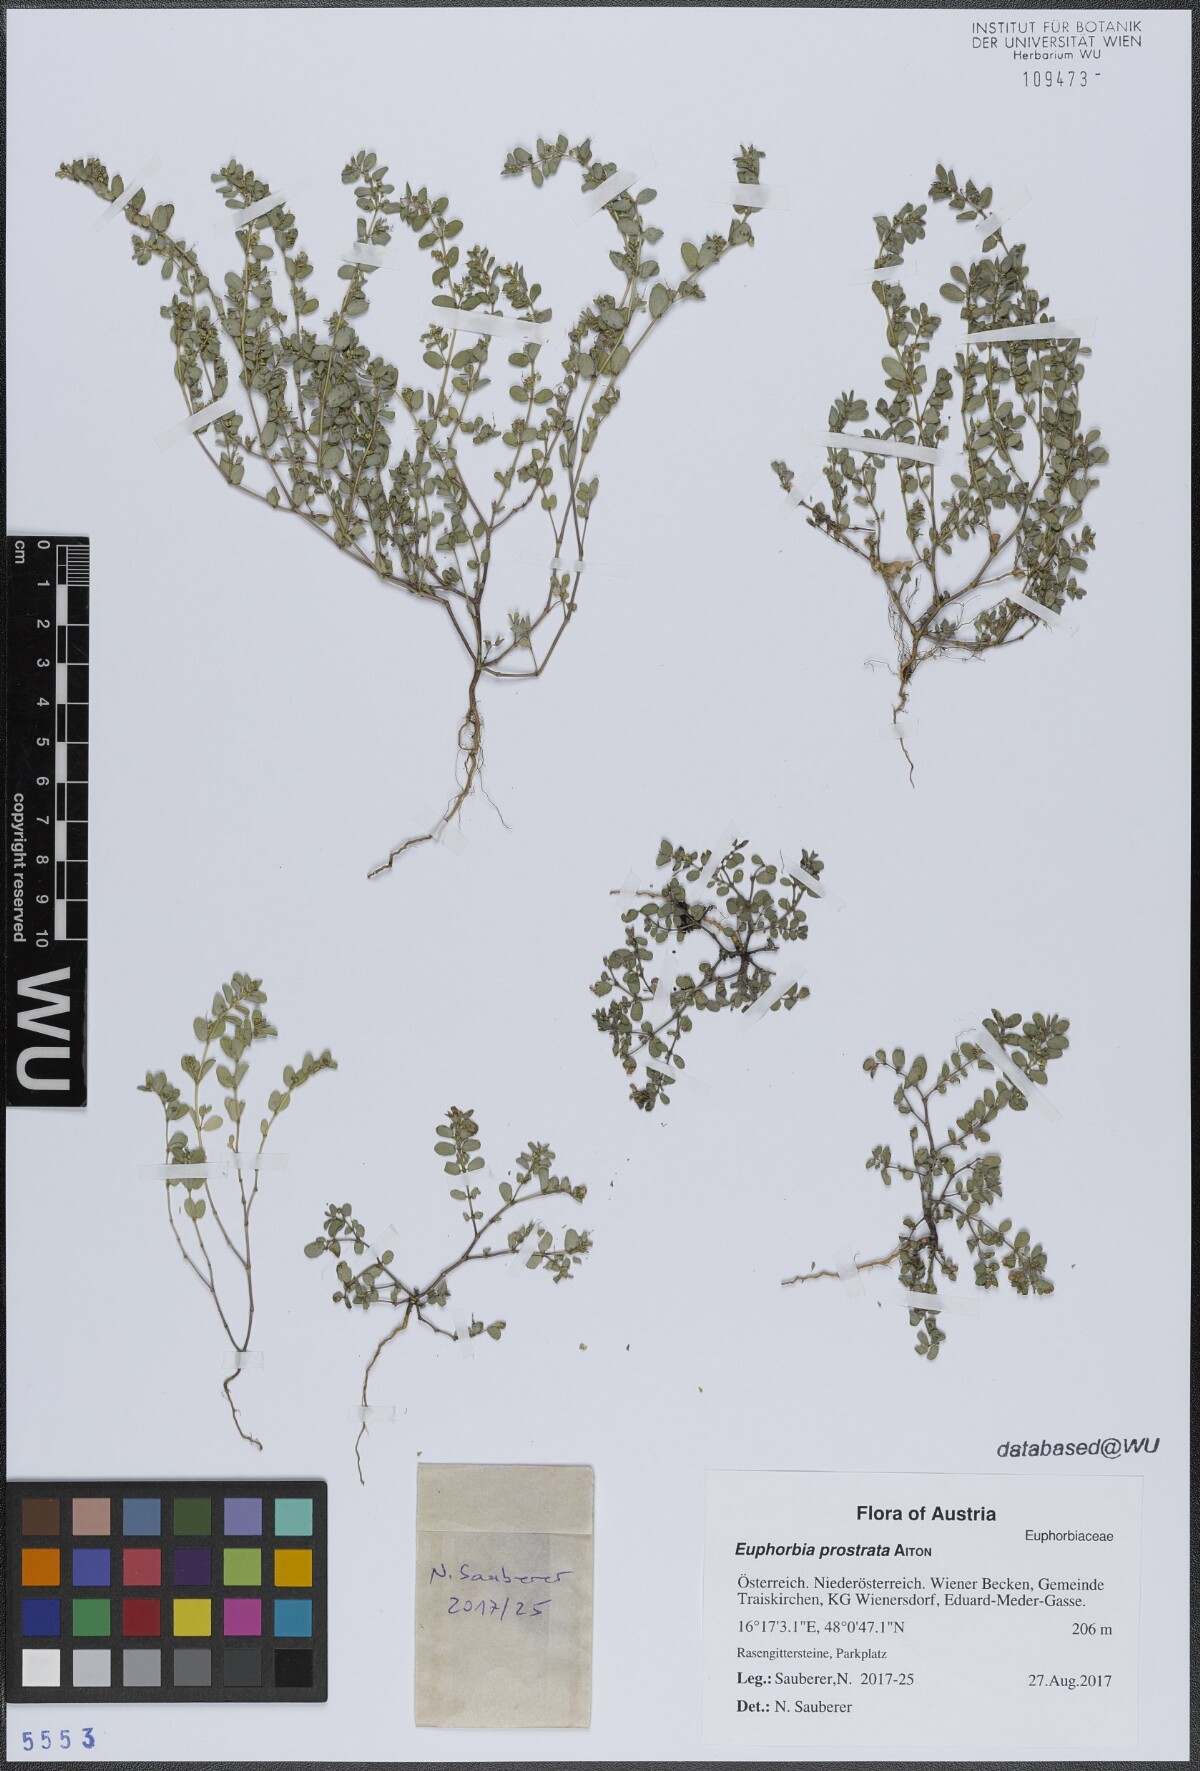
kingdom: Plantae
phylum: Tracheophyta
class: Magnoliopsida
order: Malpighiales
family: Euphorbiaceae
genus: Euphorbia
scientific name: Euphorbia prostrata
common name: Prostrate sandmat
